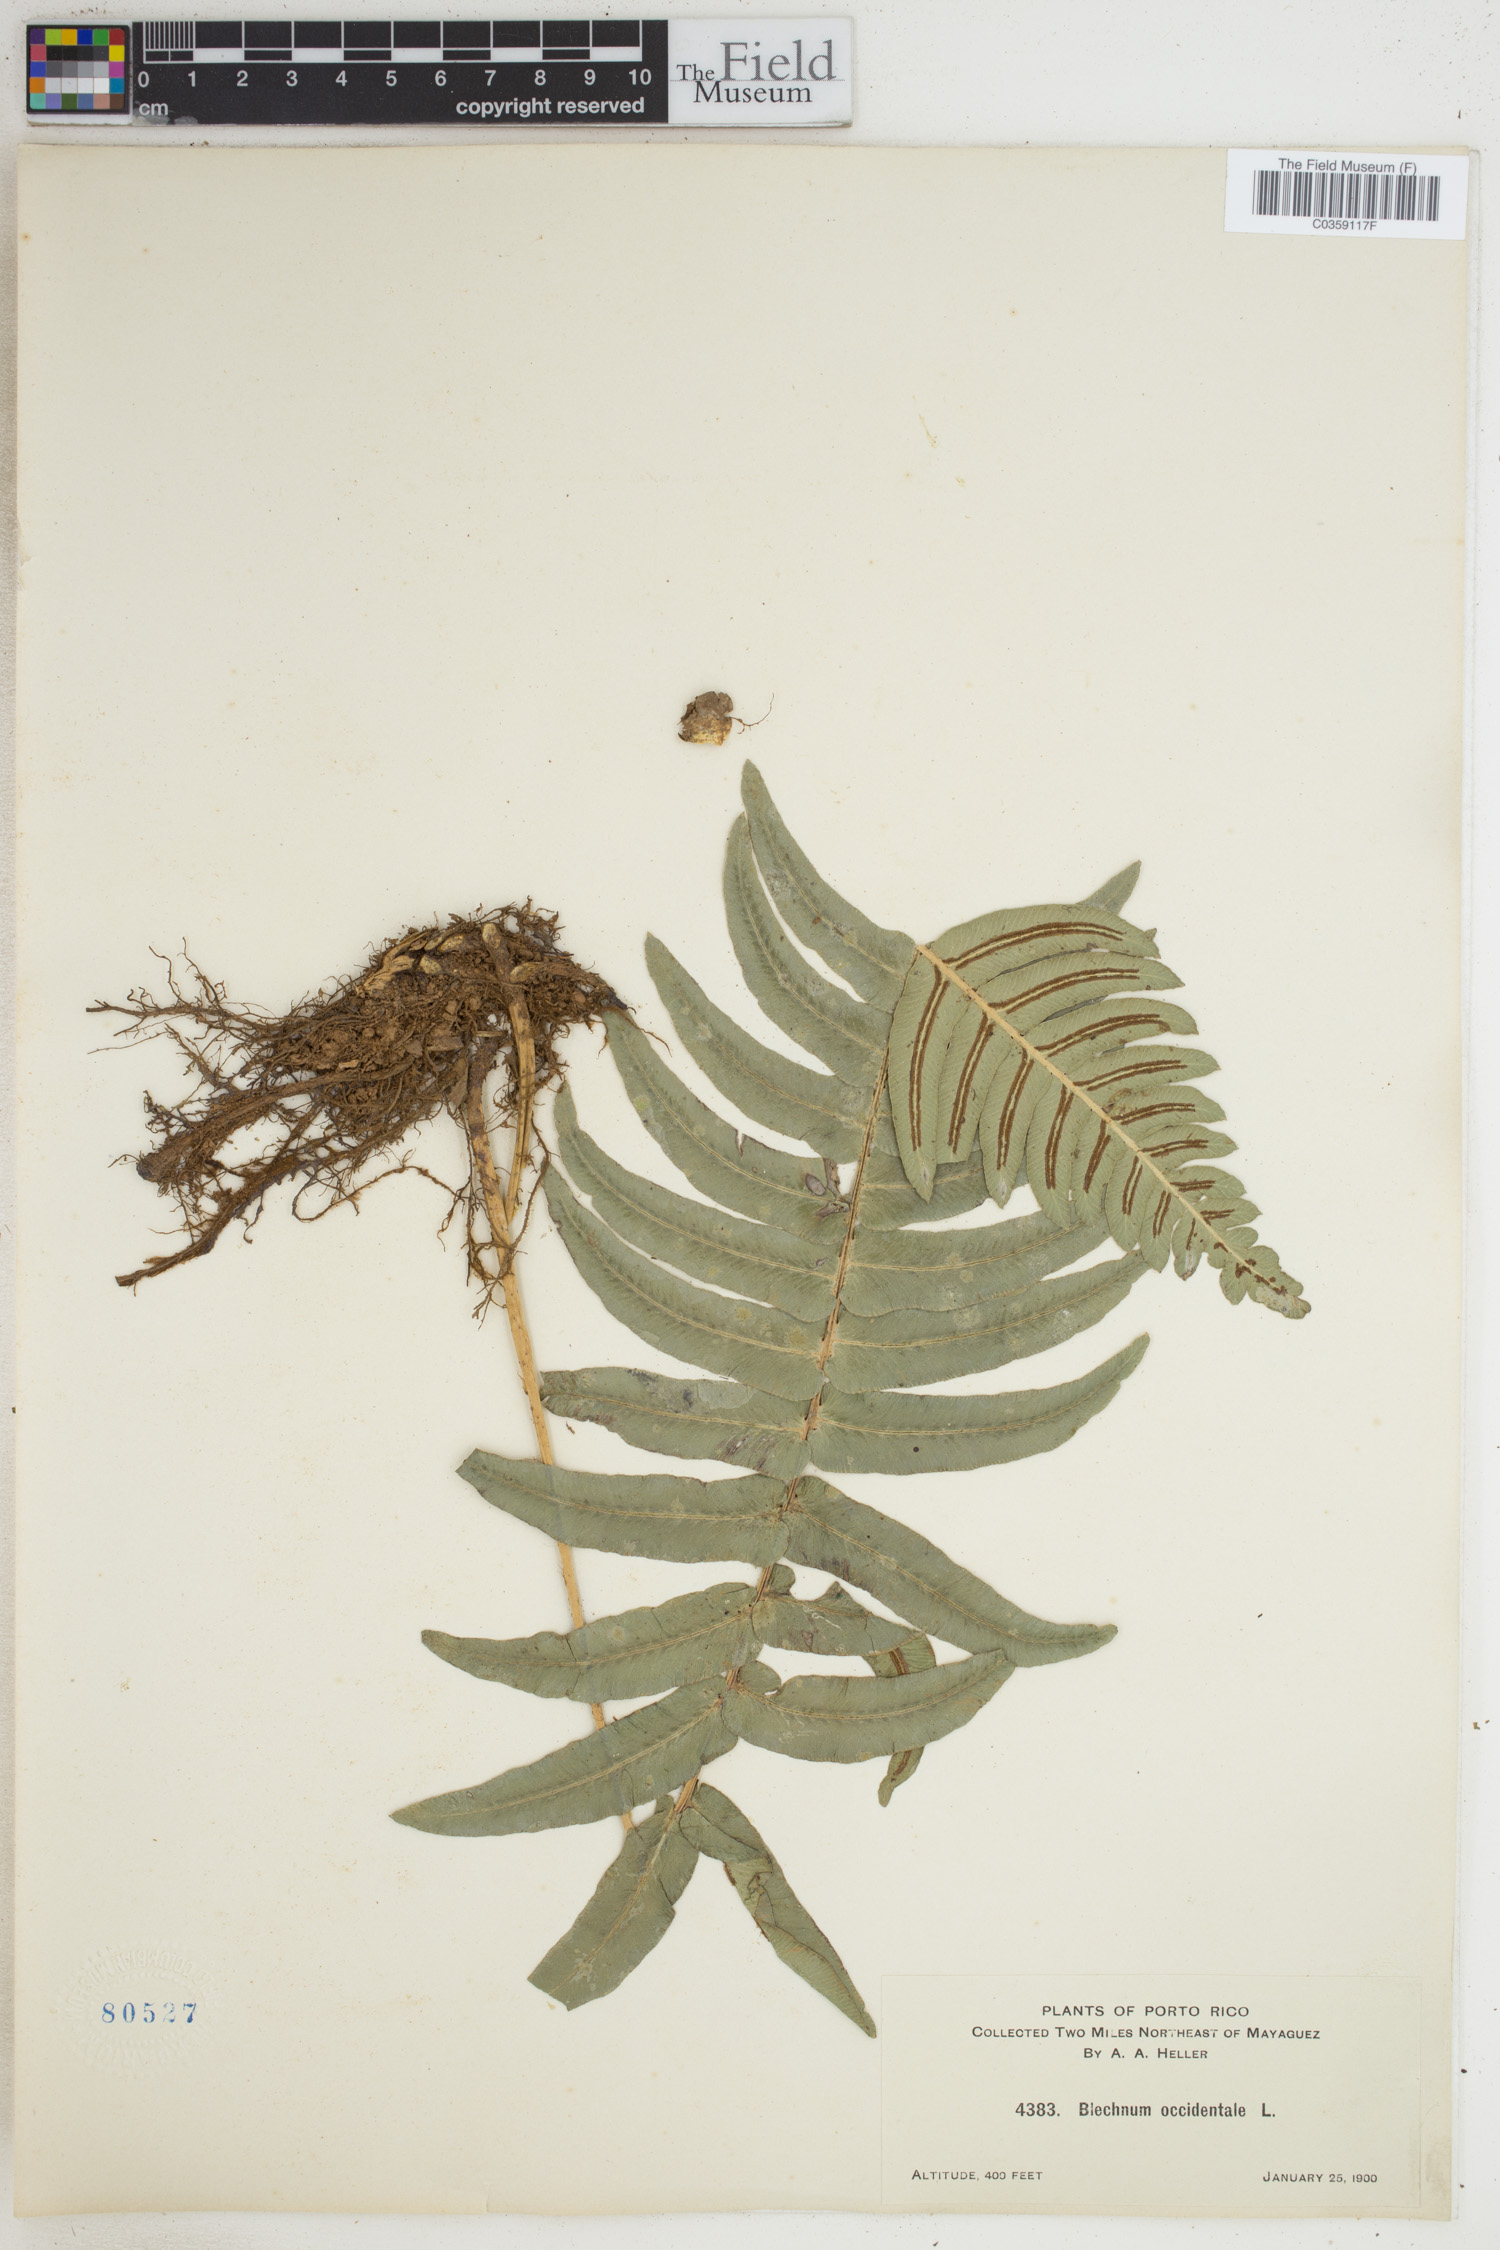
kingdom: Plantae
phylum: Tracheophyta
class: Polypodiopsida
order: Polypodiales
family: Blechnaceae
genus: Blechnum
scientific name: Blechnum occidentale
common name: Hammock fern
